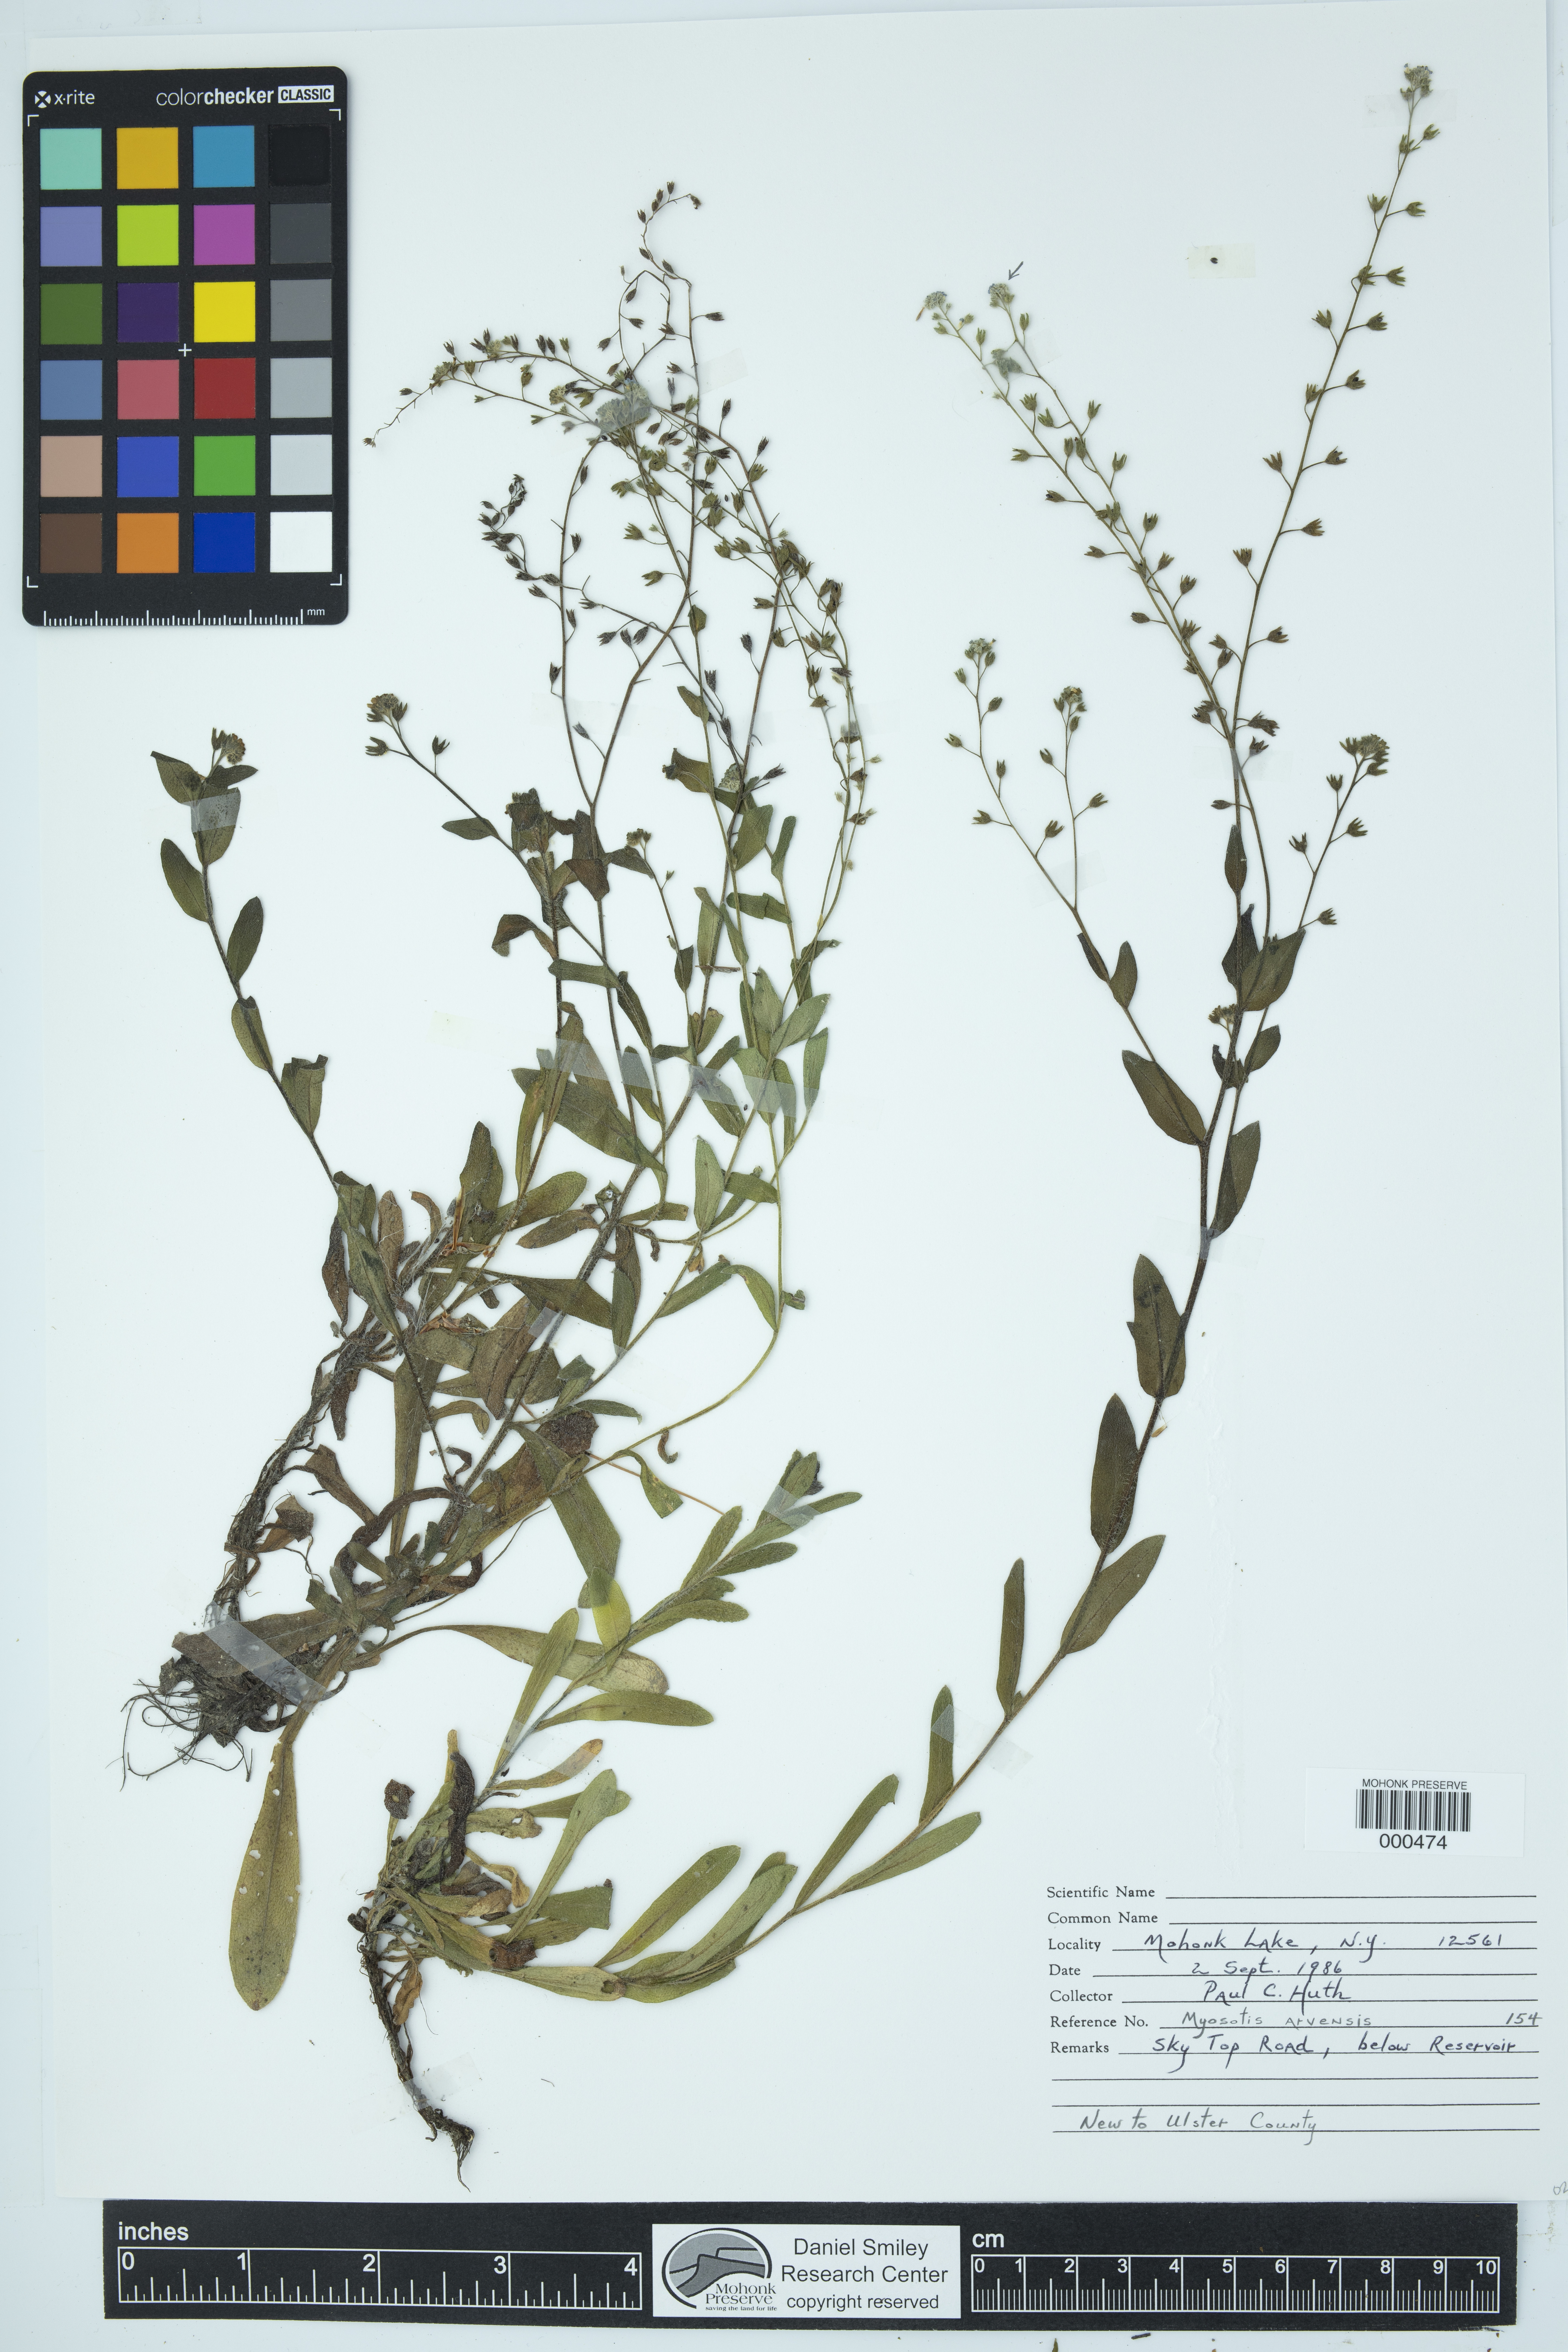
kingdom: Plantae
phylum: Tracheophyta
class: Magnoliopsida
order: Boraginales
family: Boraginaceae
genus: Myosotis
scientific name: Myosotis arvensis
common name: Field forget-me-not
